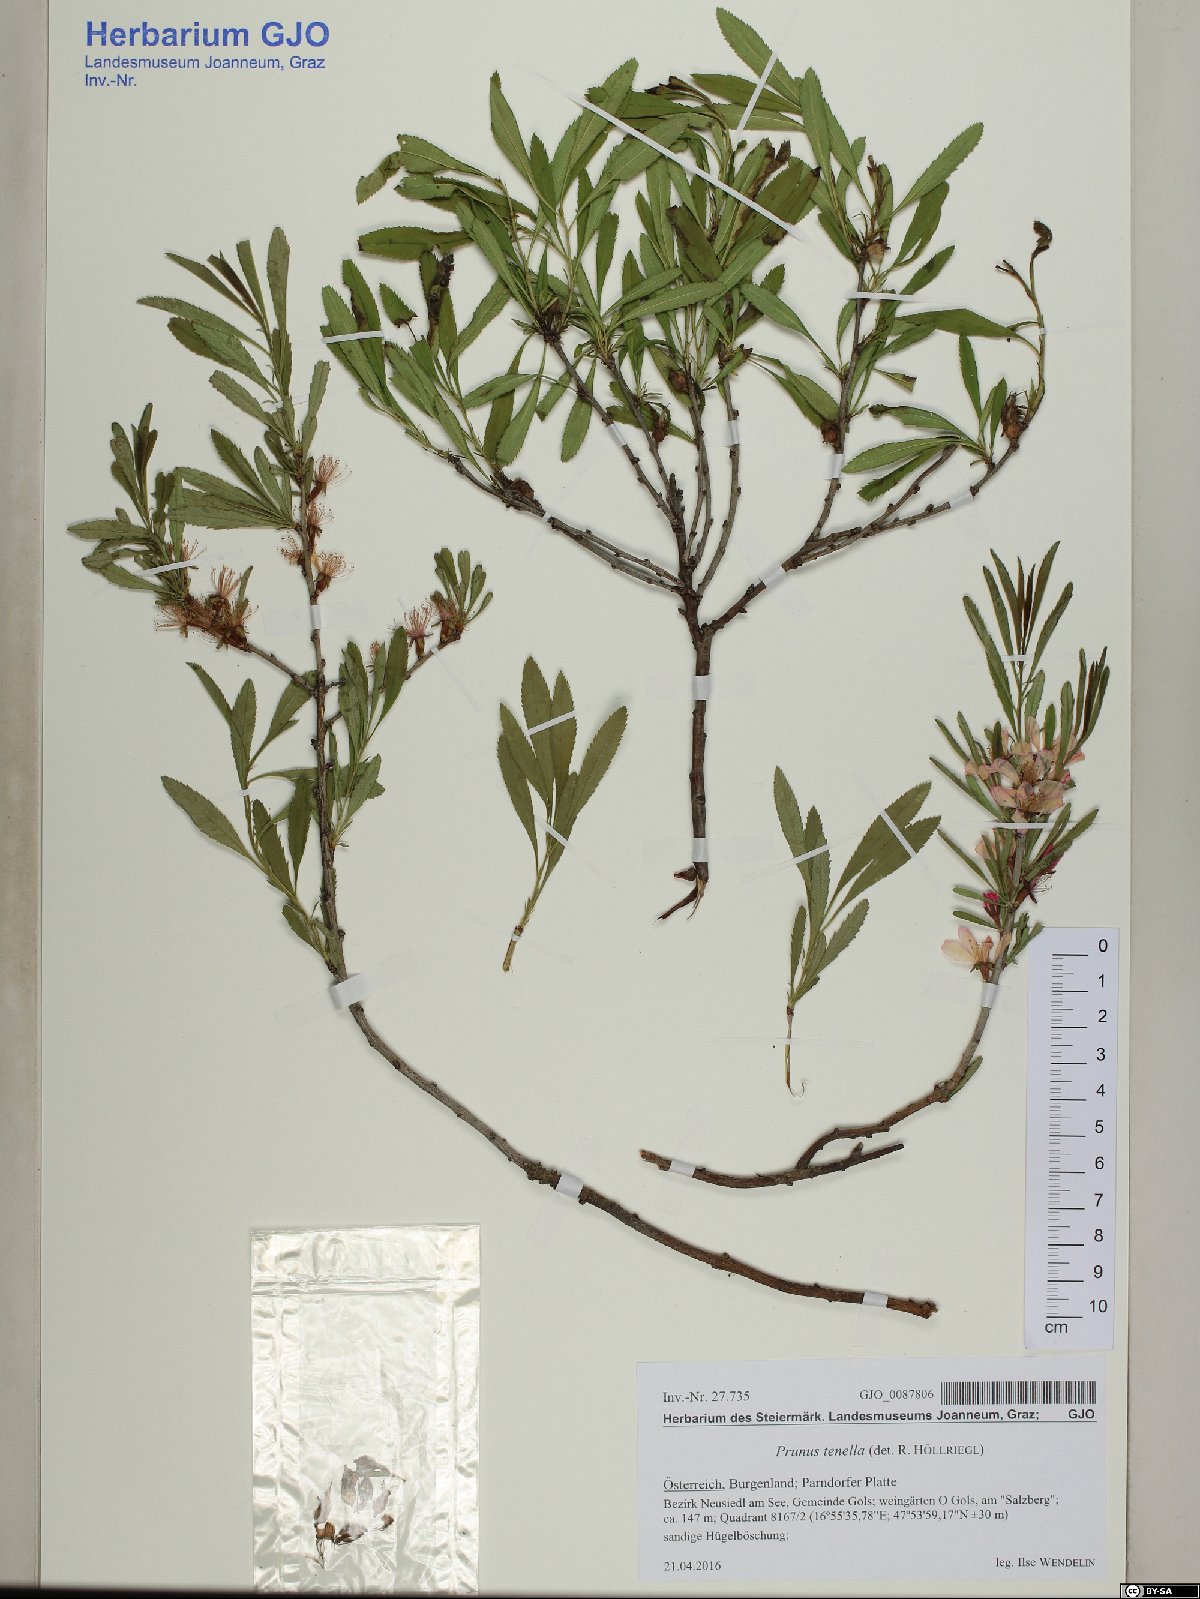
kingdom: Plantae
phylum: Tracheophyta
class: Magnoliopsida
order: Rosales
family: Rosaceae
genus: Prunus
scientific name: Prunus tenella
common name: Dwarf russian almond
